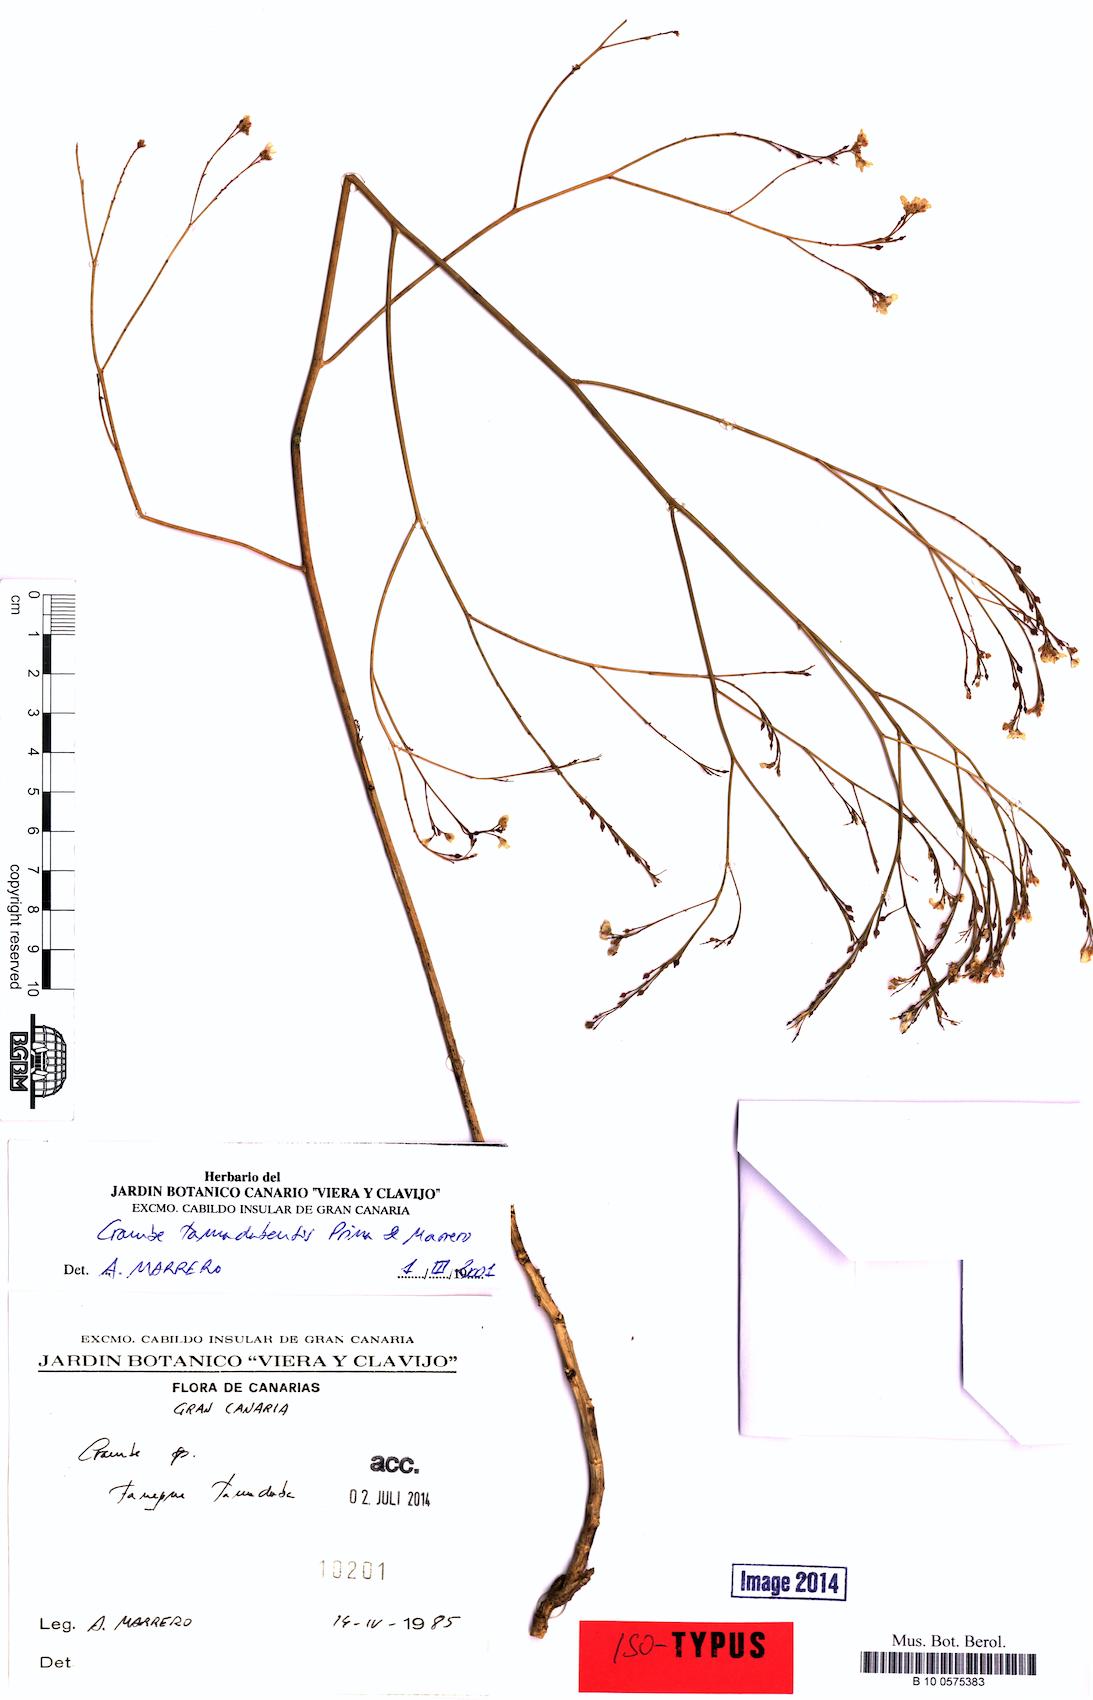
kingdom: Plantae
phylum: Tracheophyta
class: Magnoliopsida
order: Brassicales
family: Brassicaceae
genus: Crambe
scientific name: Crambe tamadabensis
